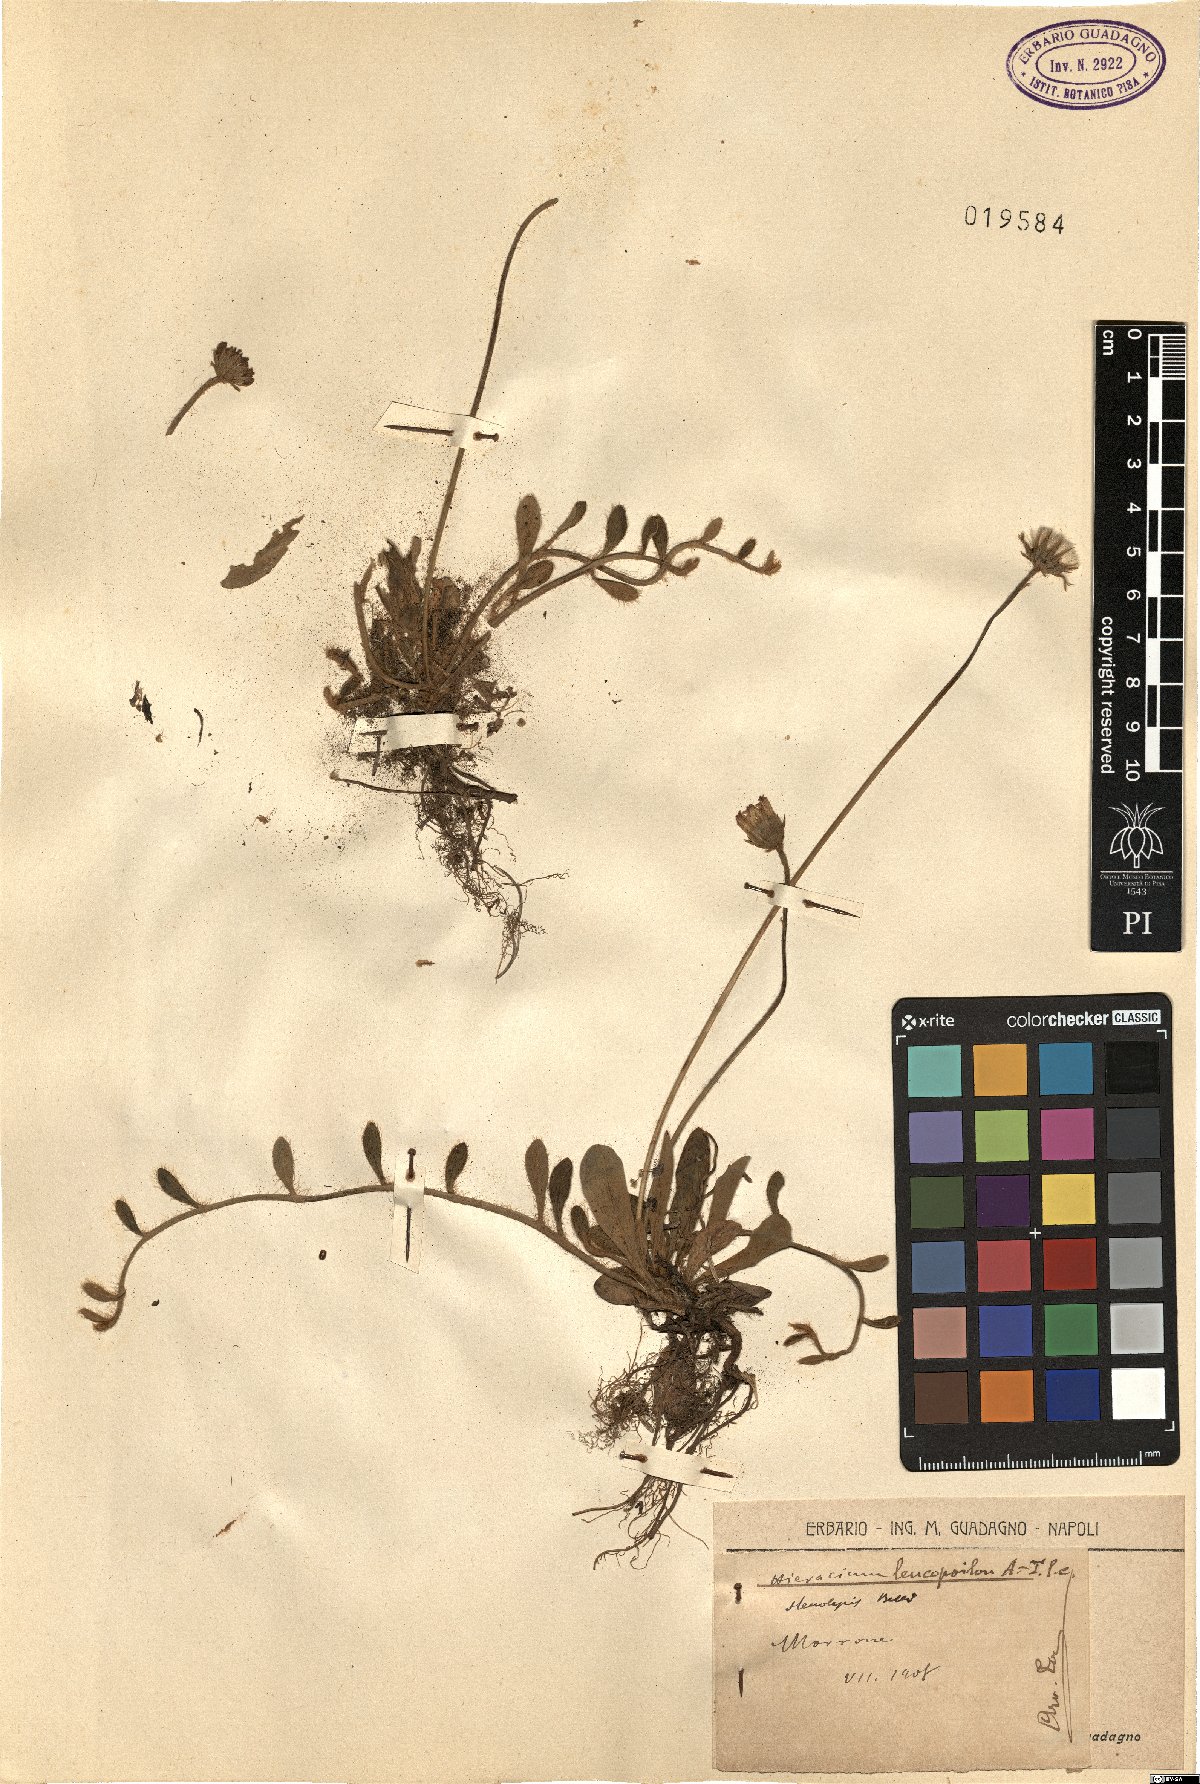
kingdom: Plantae
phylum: Tracheophyta
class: Magnoliopsida
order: Asterales
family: Asteraceae
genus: Pilosella
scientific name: Pilosella leucopsilon
